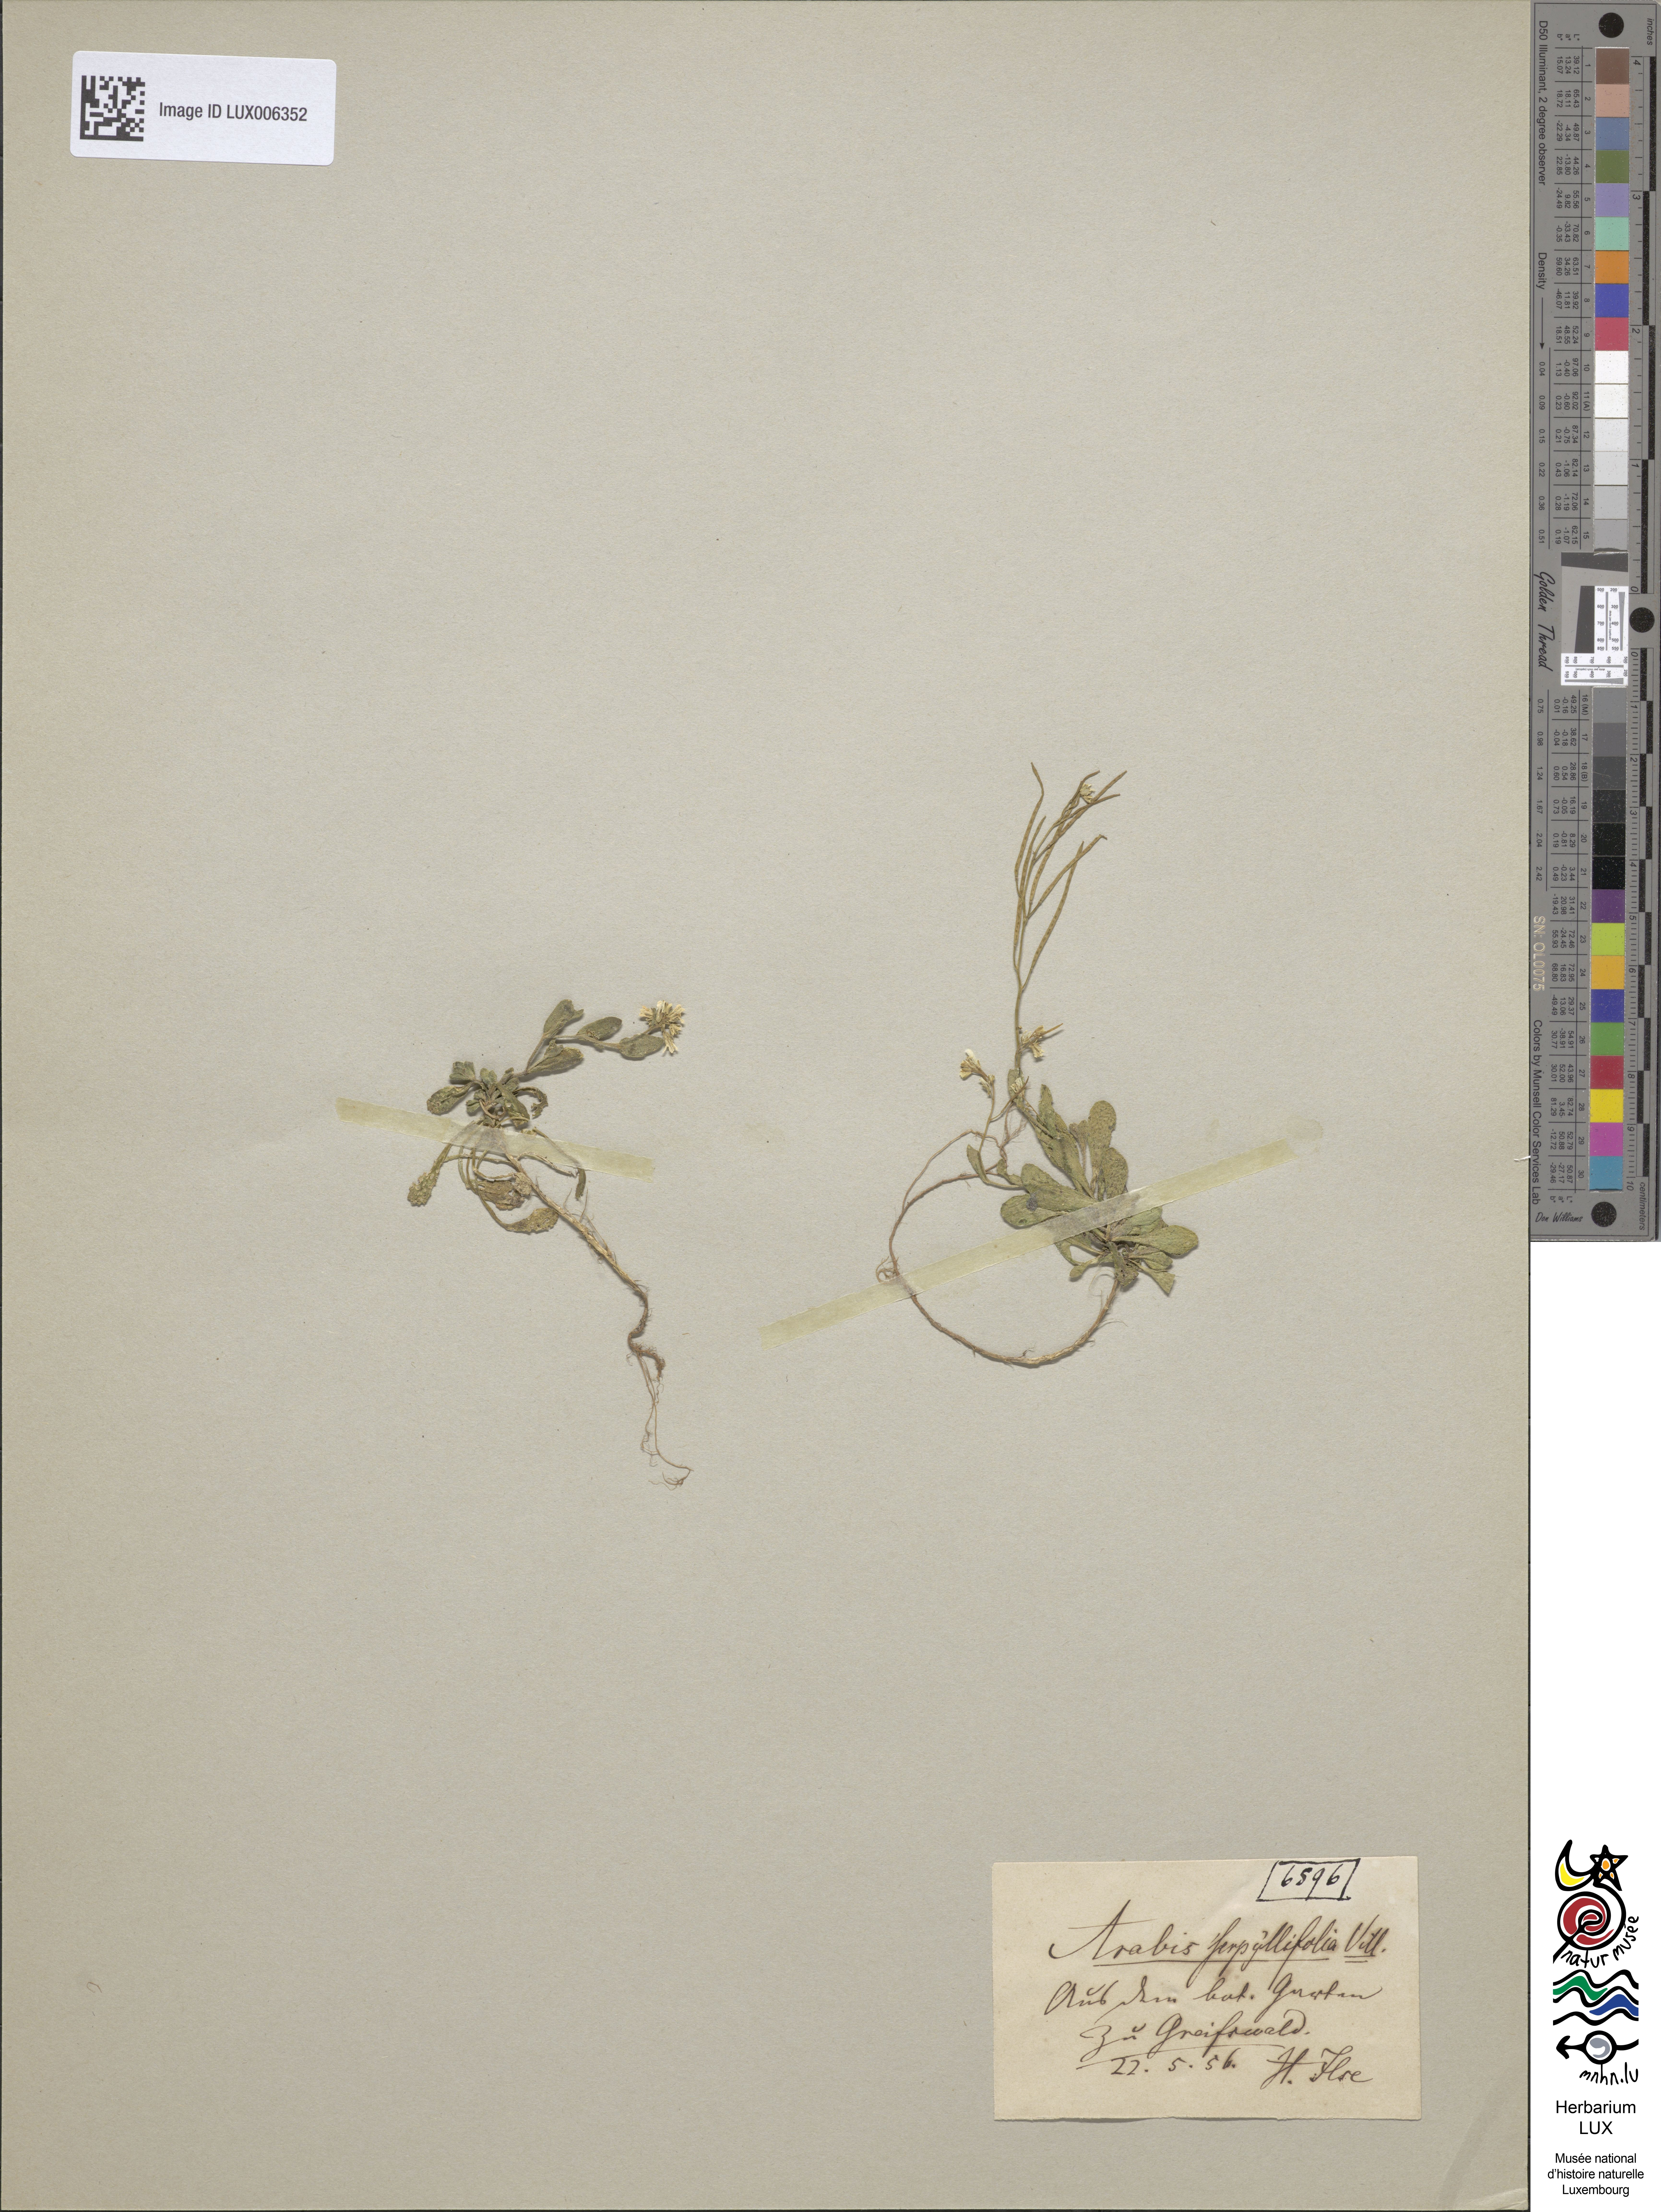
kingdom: Plantae
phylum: Tracheophyta
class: Magnoliopsida
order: Brassicales
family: Brassicaceae
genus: Arabis
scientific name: Arabis serpyllifolia
